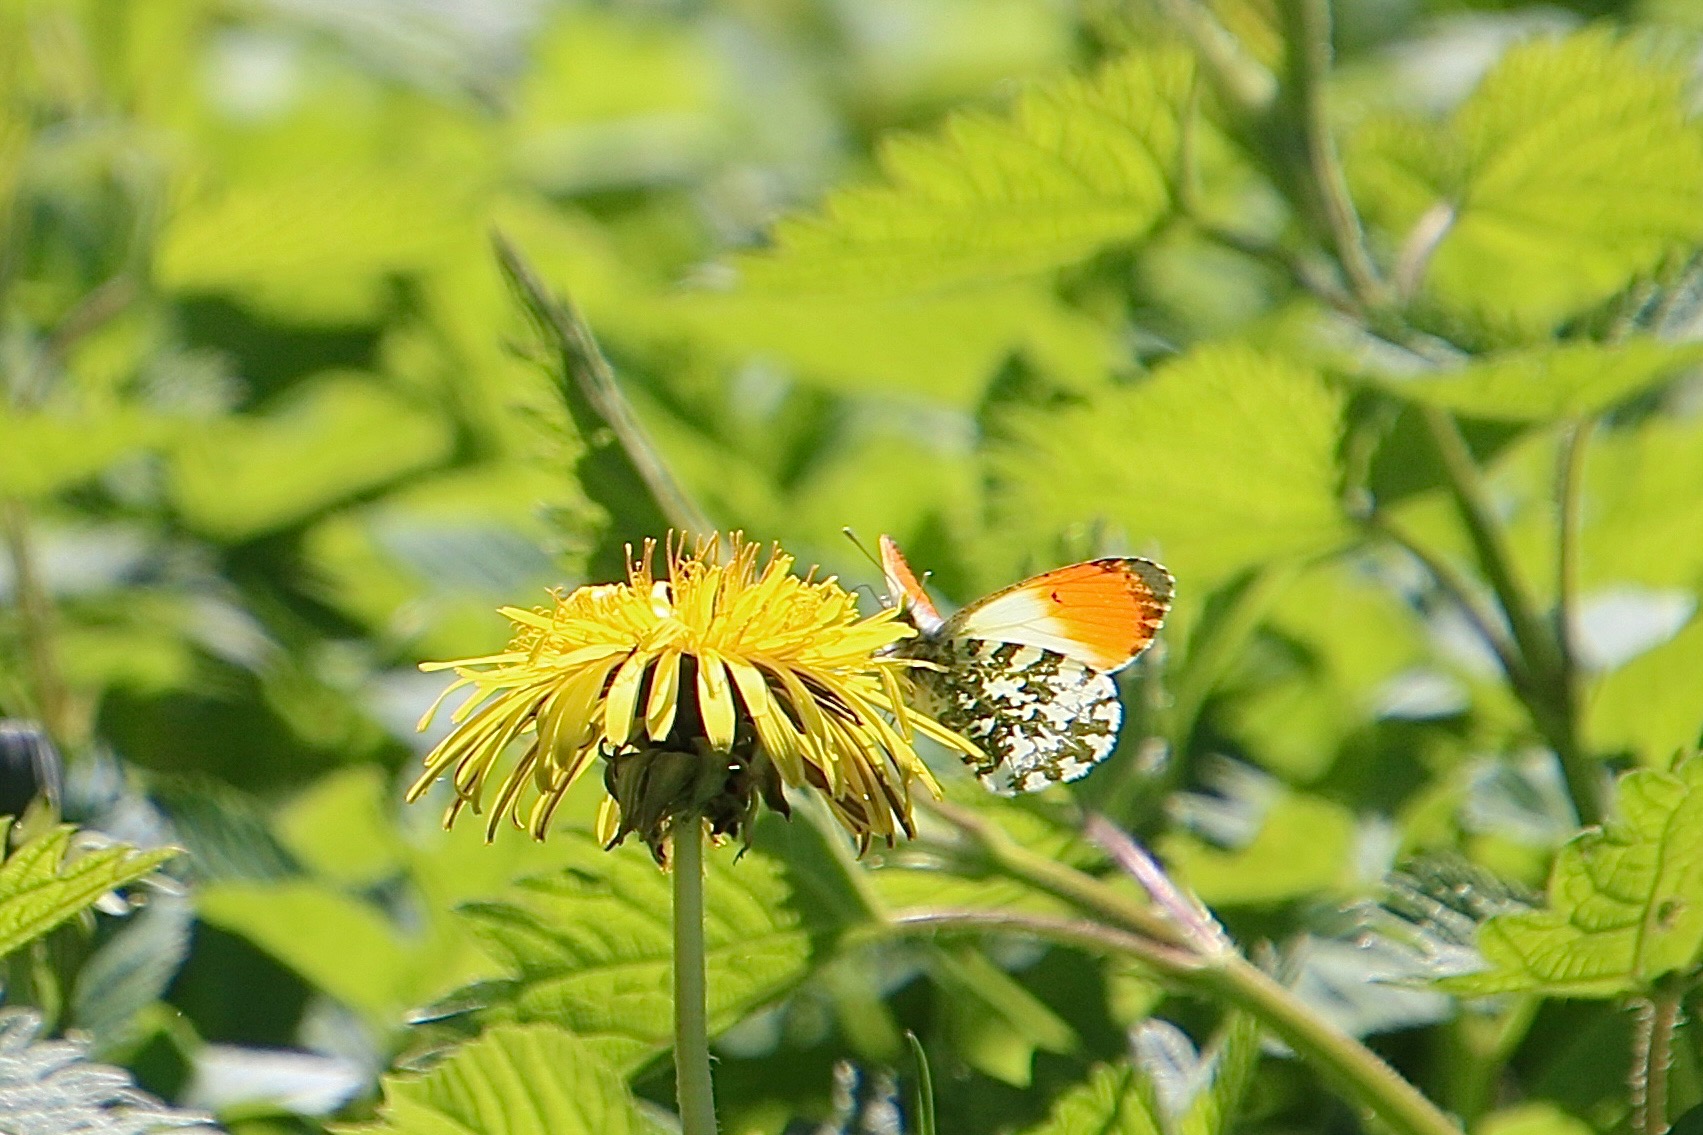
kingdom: Animalia
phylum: Arthropoda
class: Insecta
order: Lepidoptera
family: Pieridae
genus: Anthocharis
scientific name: Anthocharis cardamines
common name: Aurora
